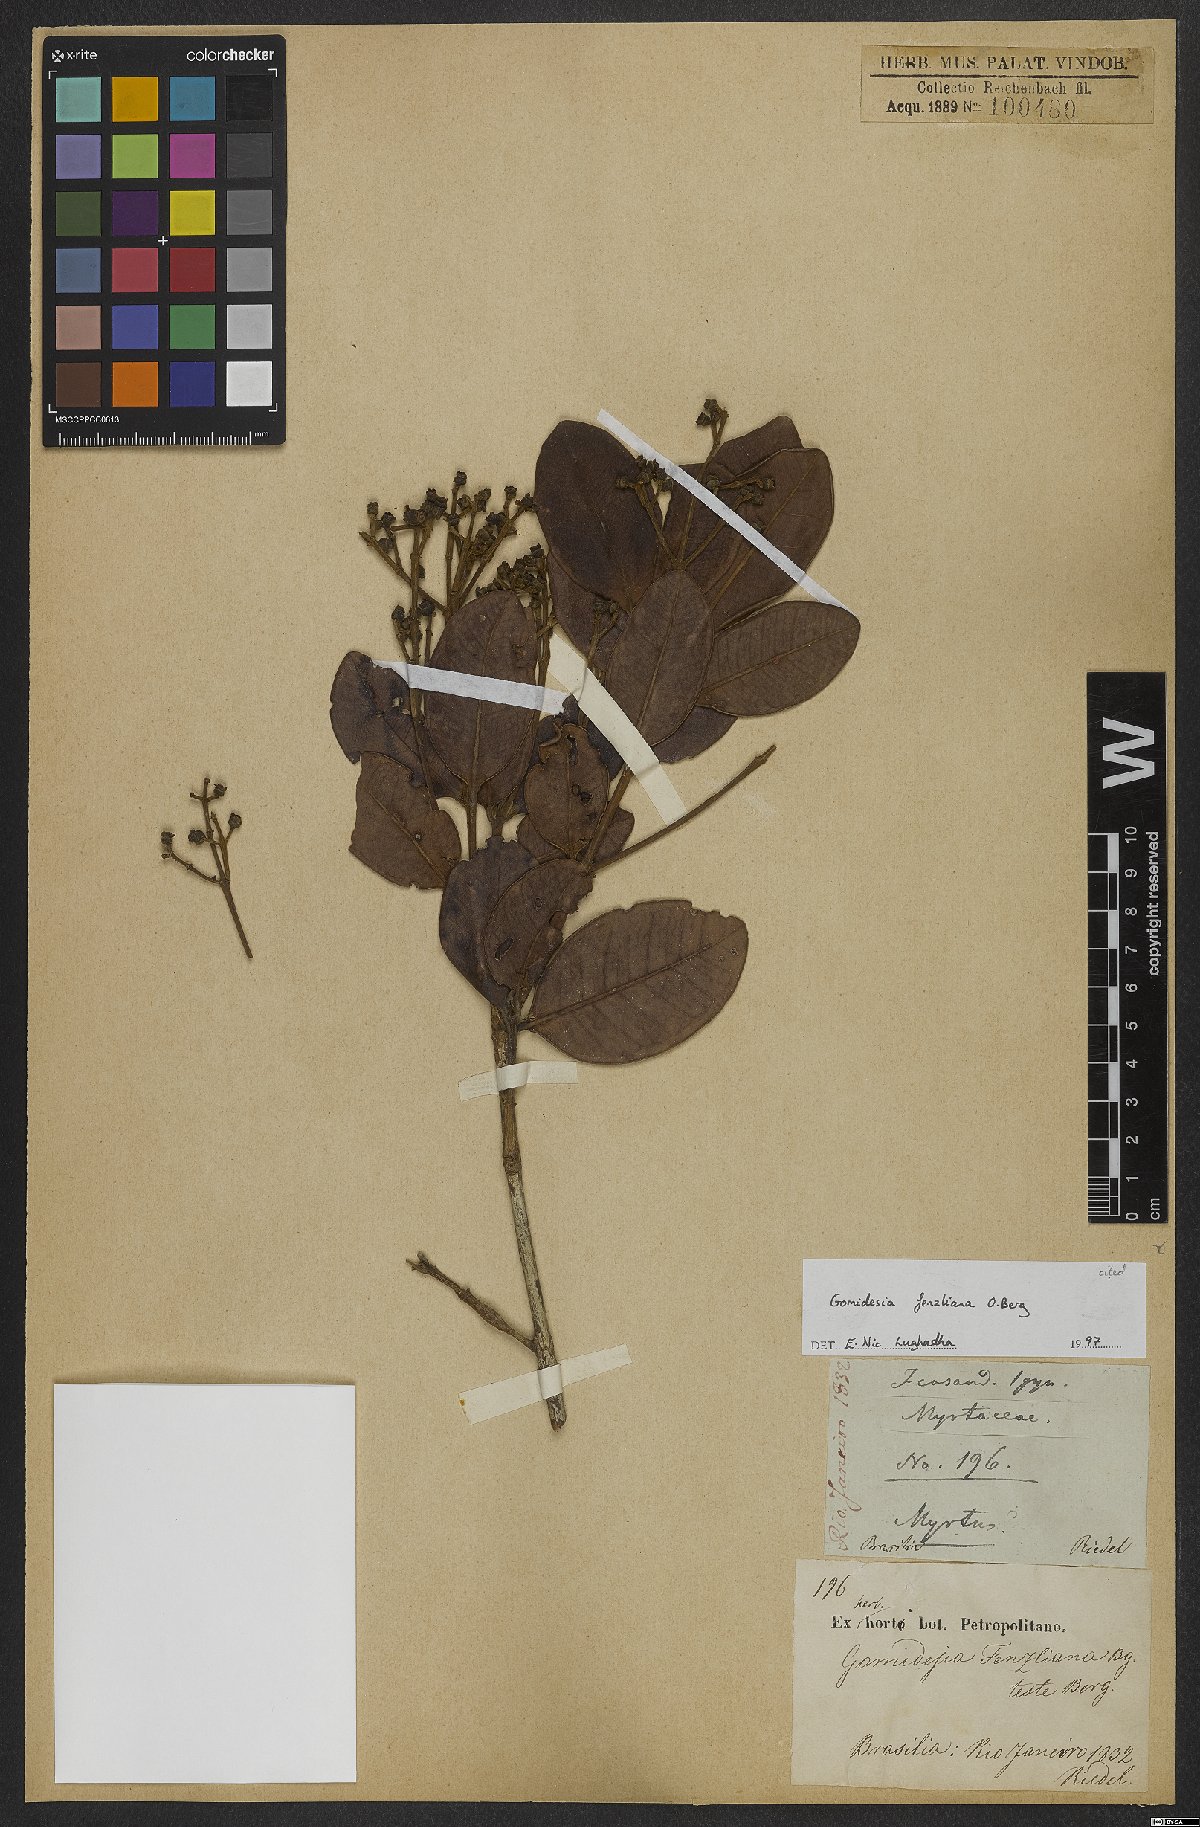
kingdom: Plantae
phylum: Tracheophyta
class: Magnoliopsida
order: Myrtales
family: Myrtaceae
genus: Myrcia
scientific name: Myrcia ilheosensis
